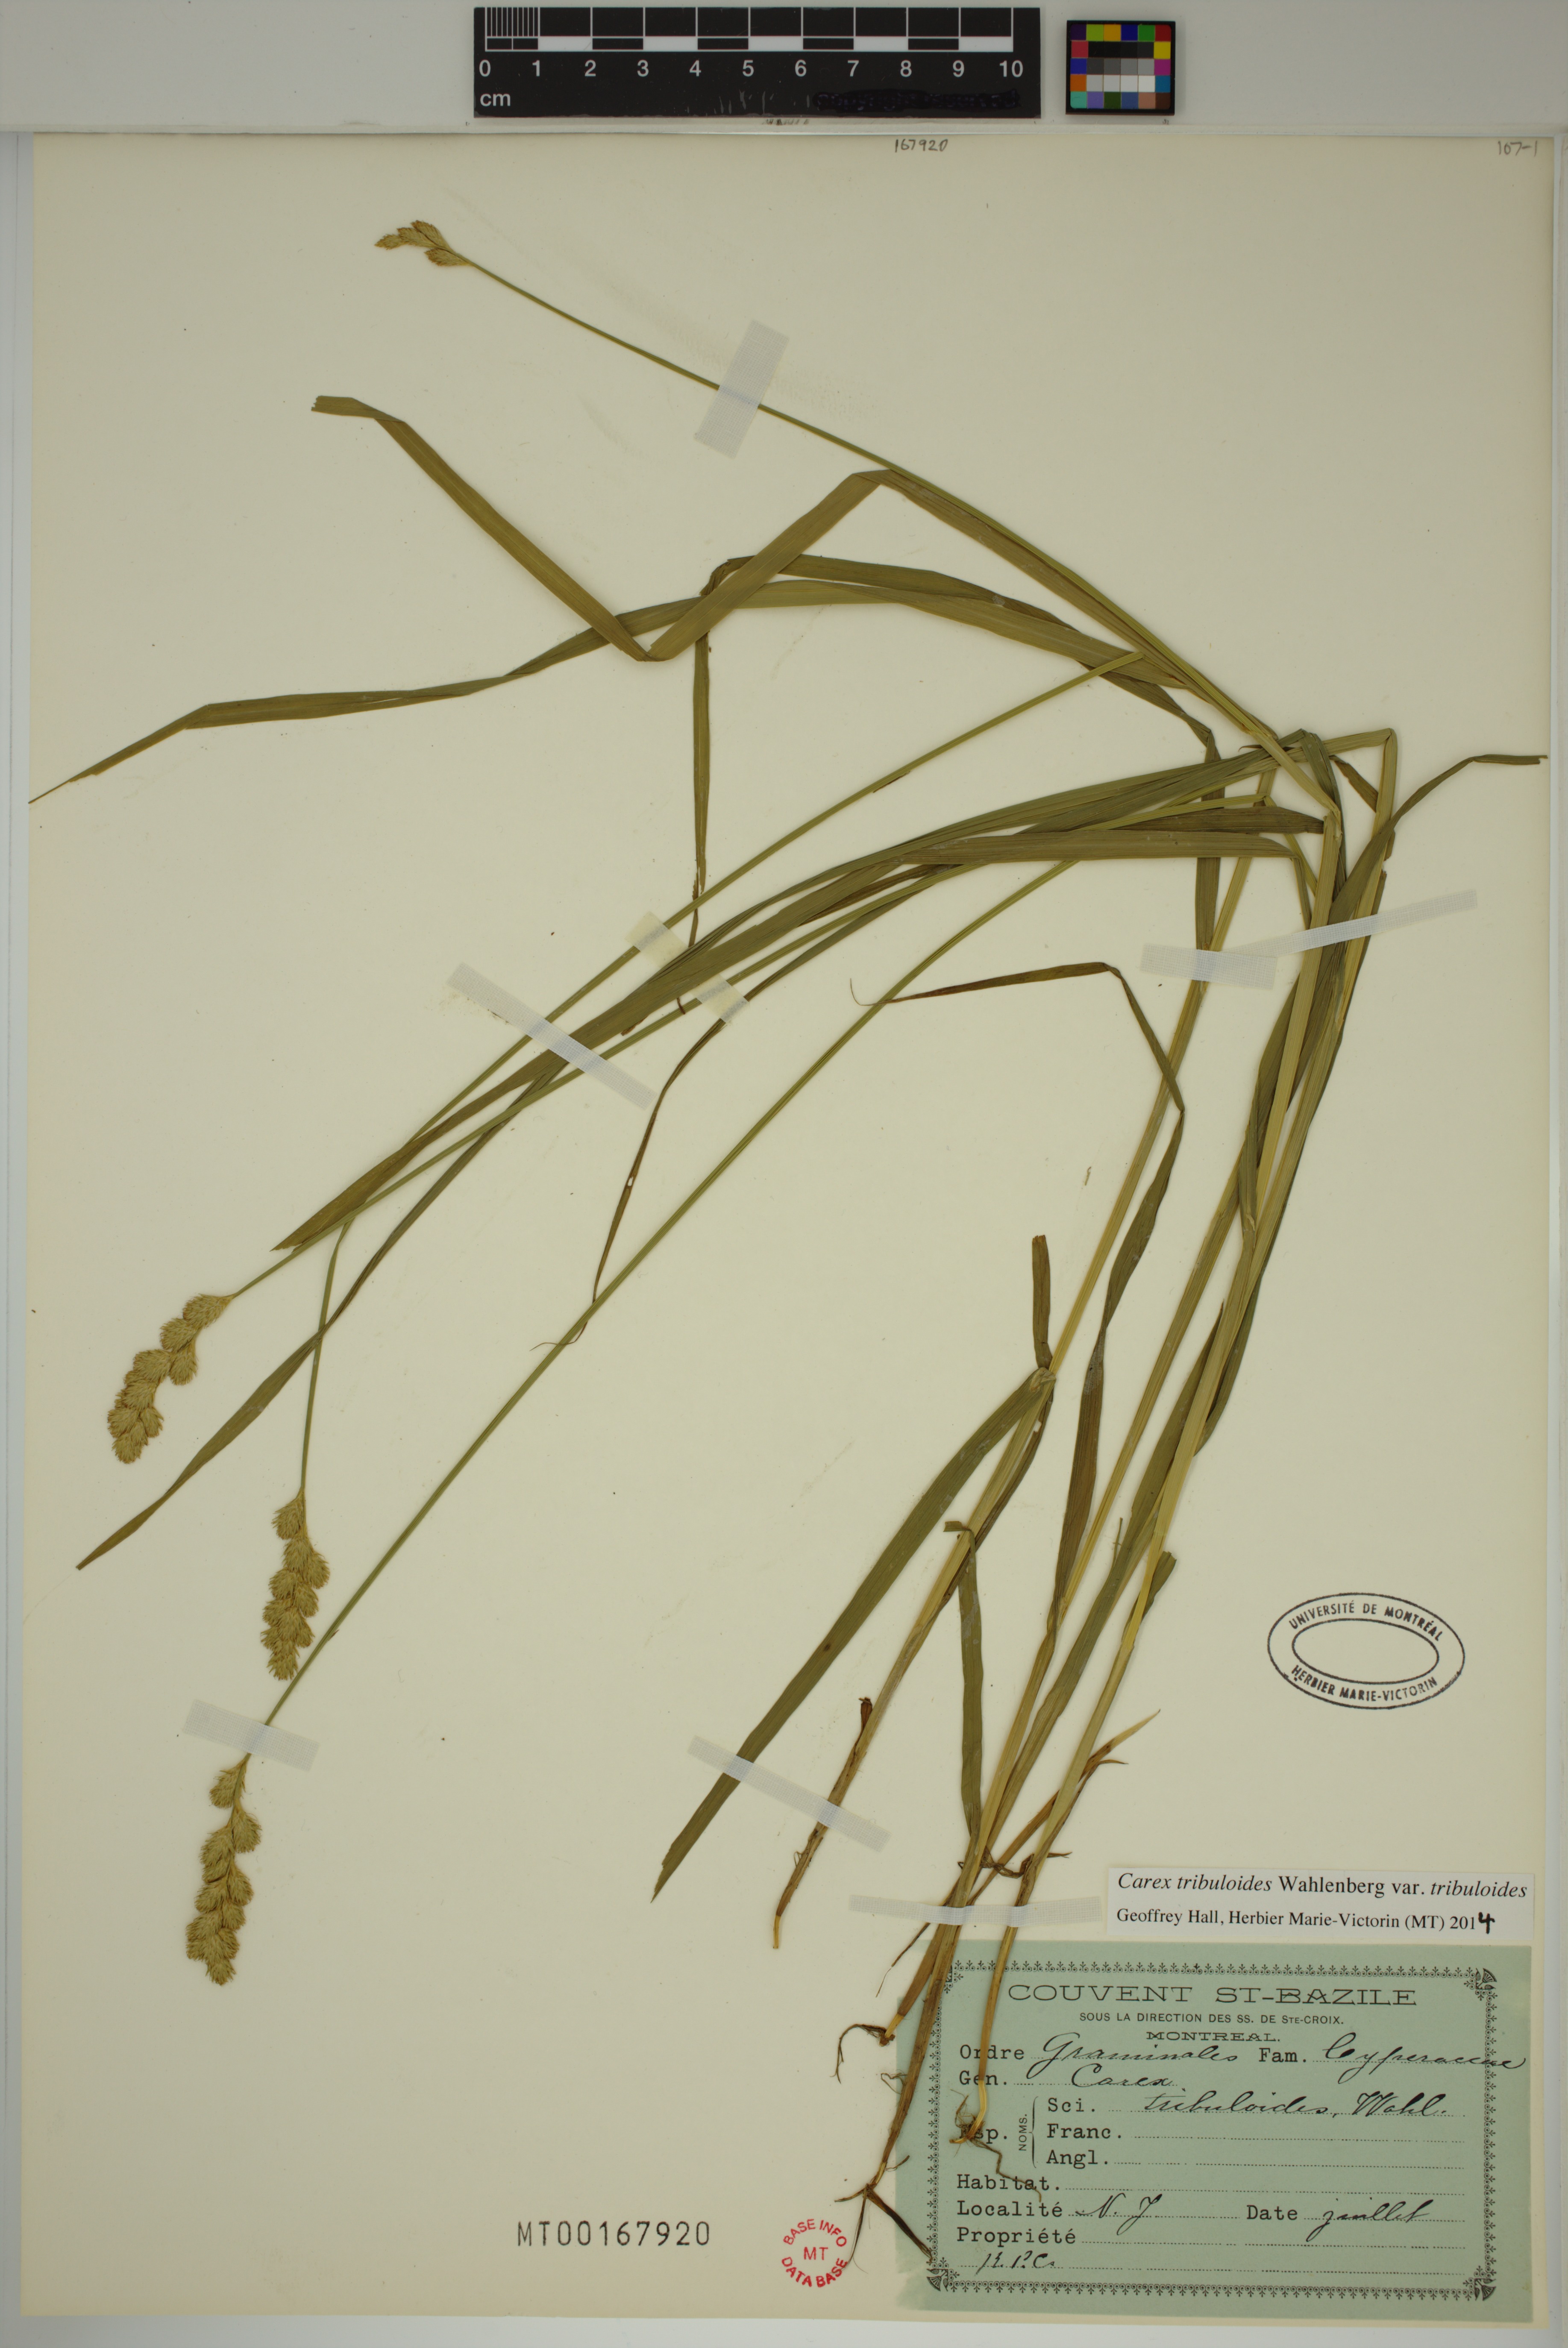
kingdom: Plantae
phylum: Tracheophyta
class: Liliopsida
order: Poales
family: Cyperaceae
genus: Carex
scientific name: Carex tribuloides
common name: Blunt broom sedge
